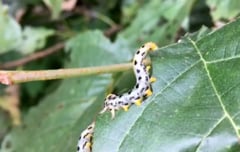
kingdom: Animalia
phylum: Arthropoda
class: Insecta
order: Hymenoptera
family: Tenthredinidae
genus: Craesus
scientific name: Craesus septentrionalis
